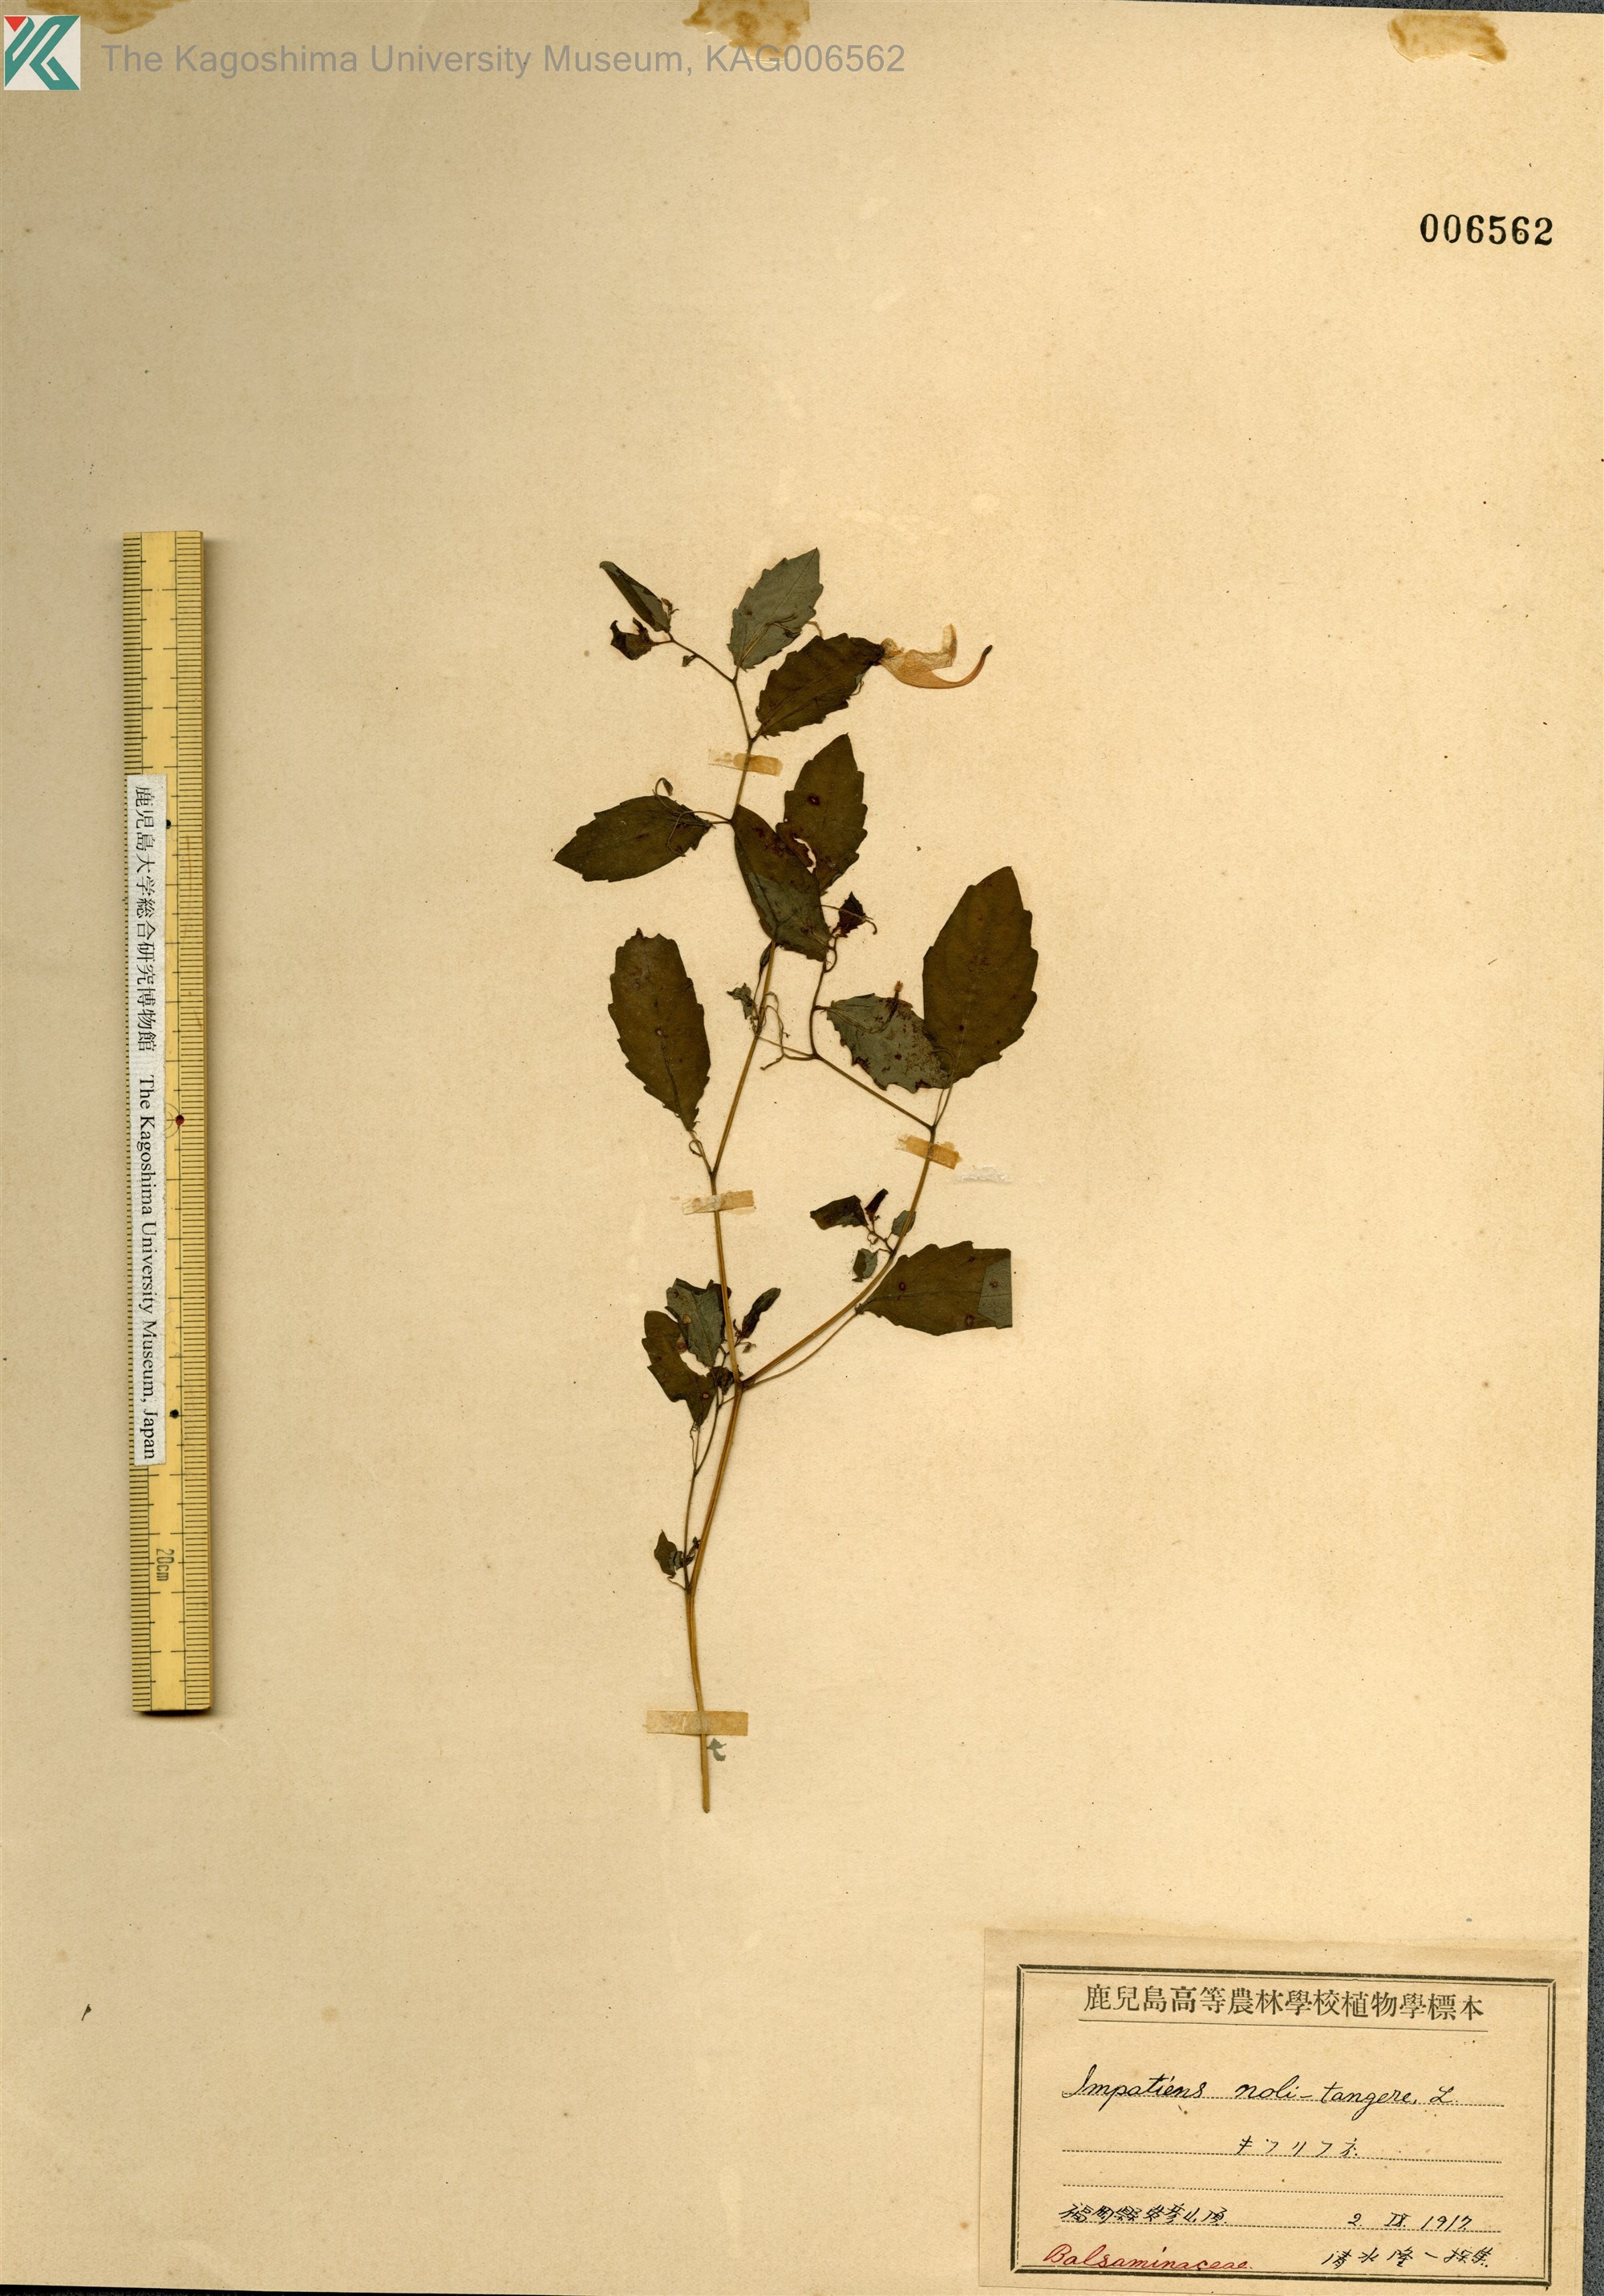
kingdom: Plantae
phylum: Tracheophyta
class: Magnoliopsida
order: Ericales
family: Balsaminaceae
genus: Impatiens
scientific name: Impatiens noli-tangere
